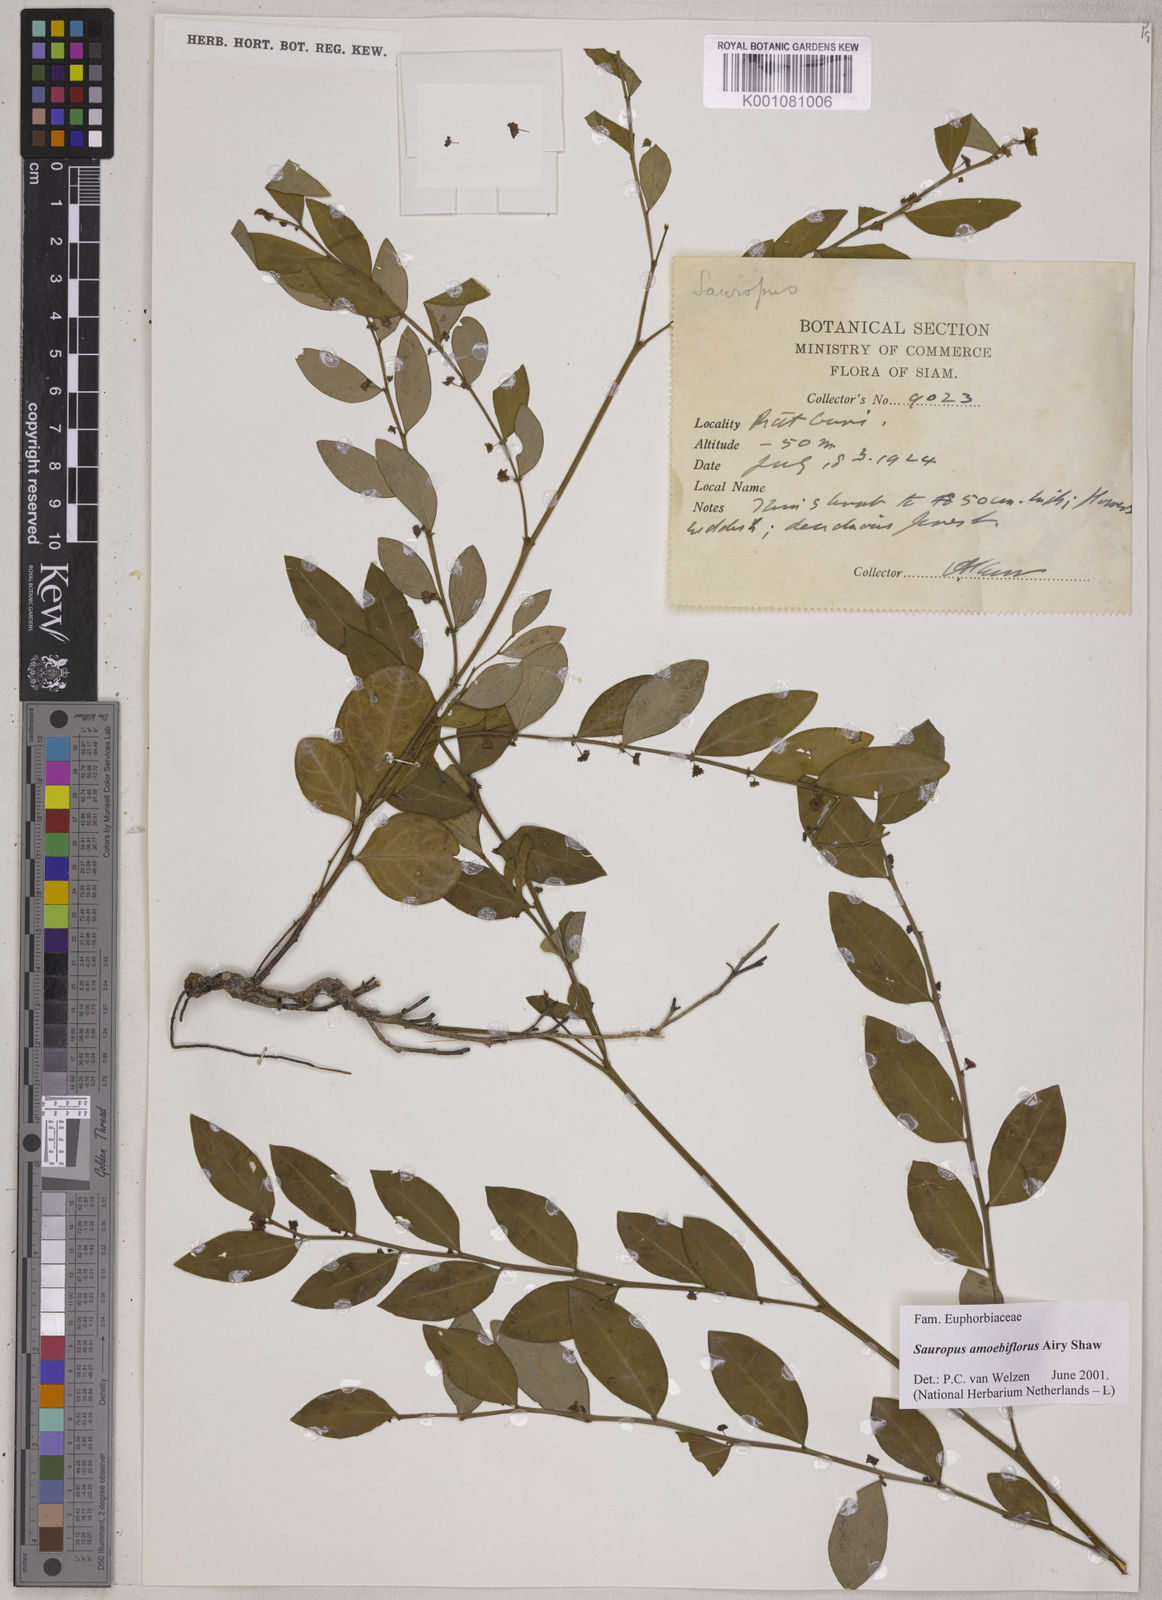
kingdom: Plantae
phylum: Tracheophyta
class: Magnoliopsida
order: Malpighiales
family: Phyllanthaceae
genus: Breynia
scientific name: Breynia amoebiflora
